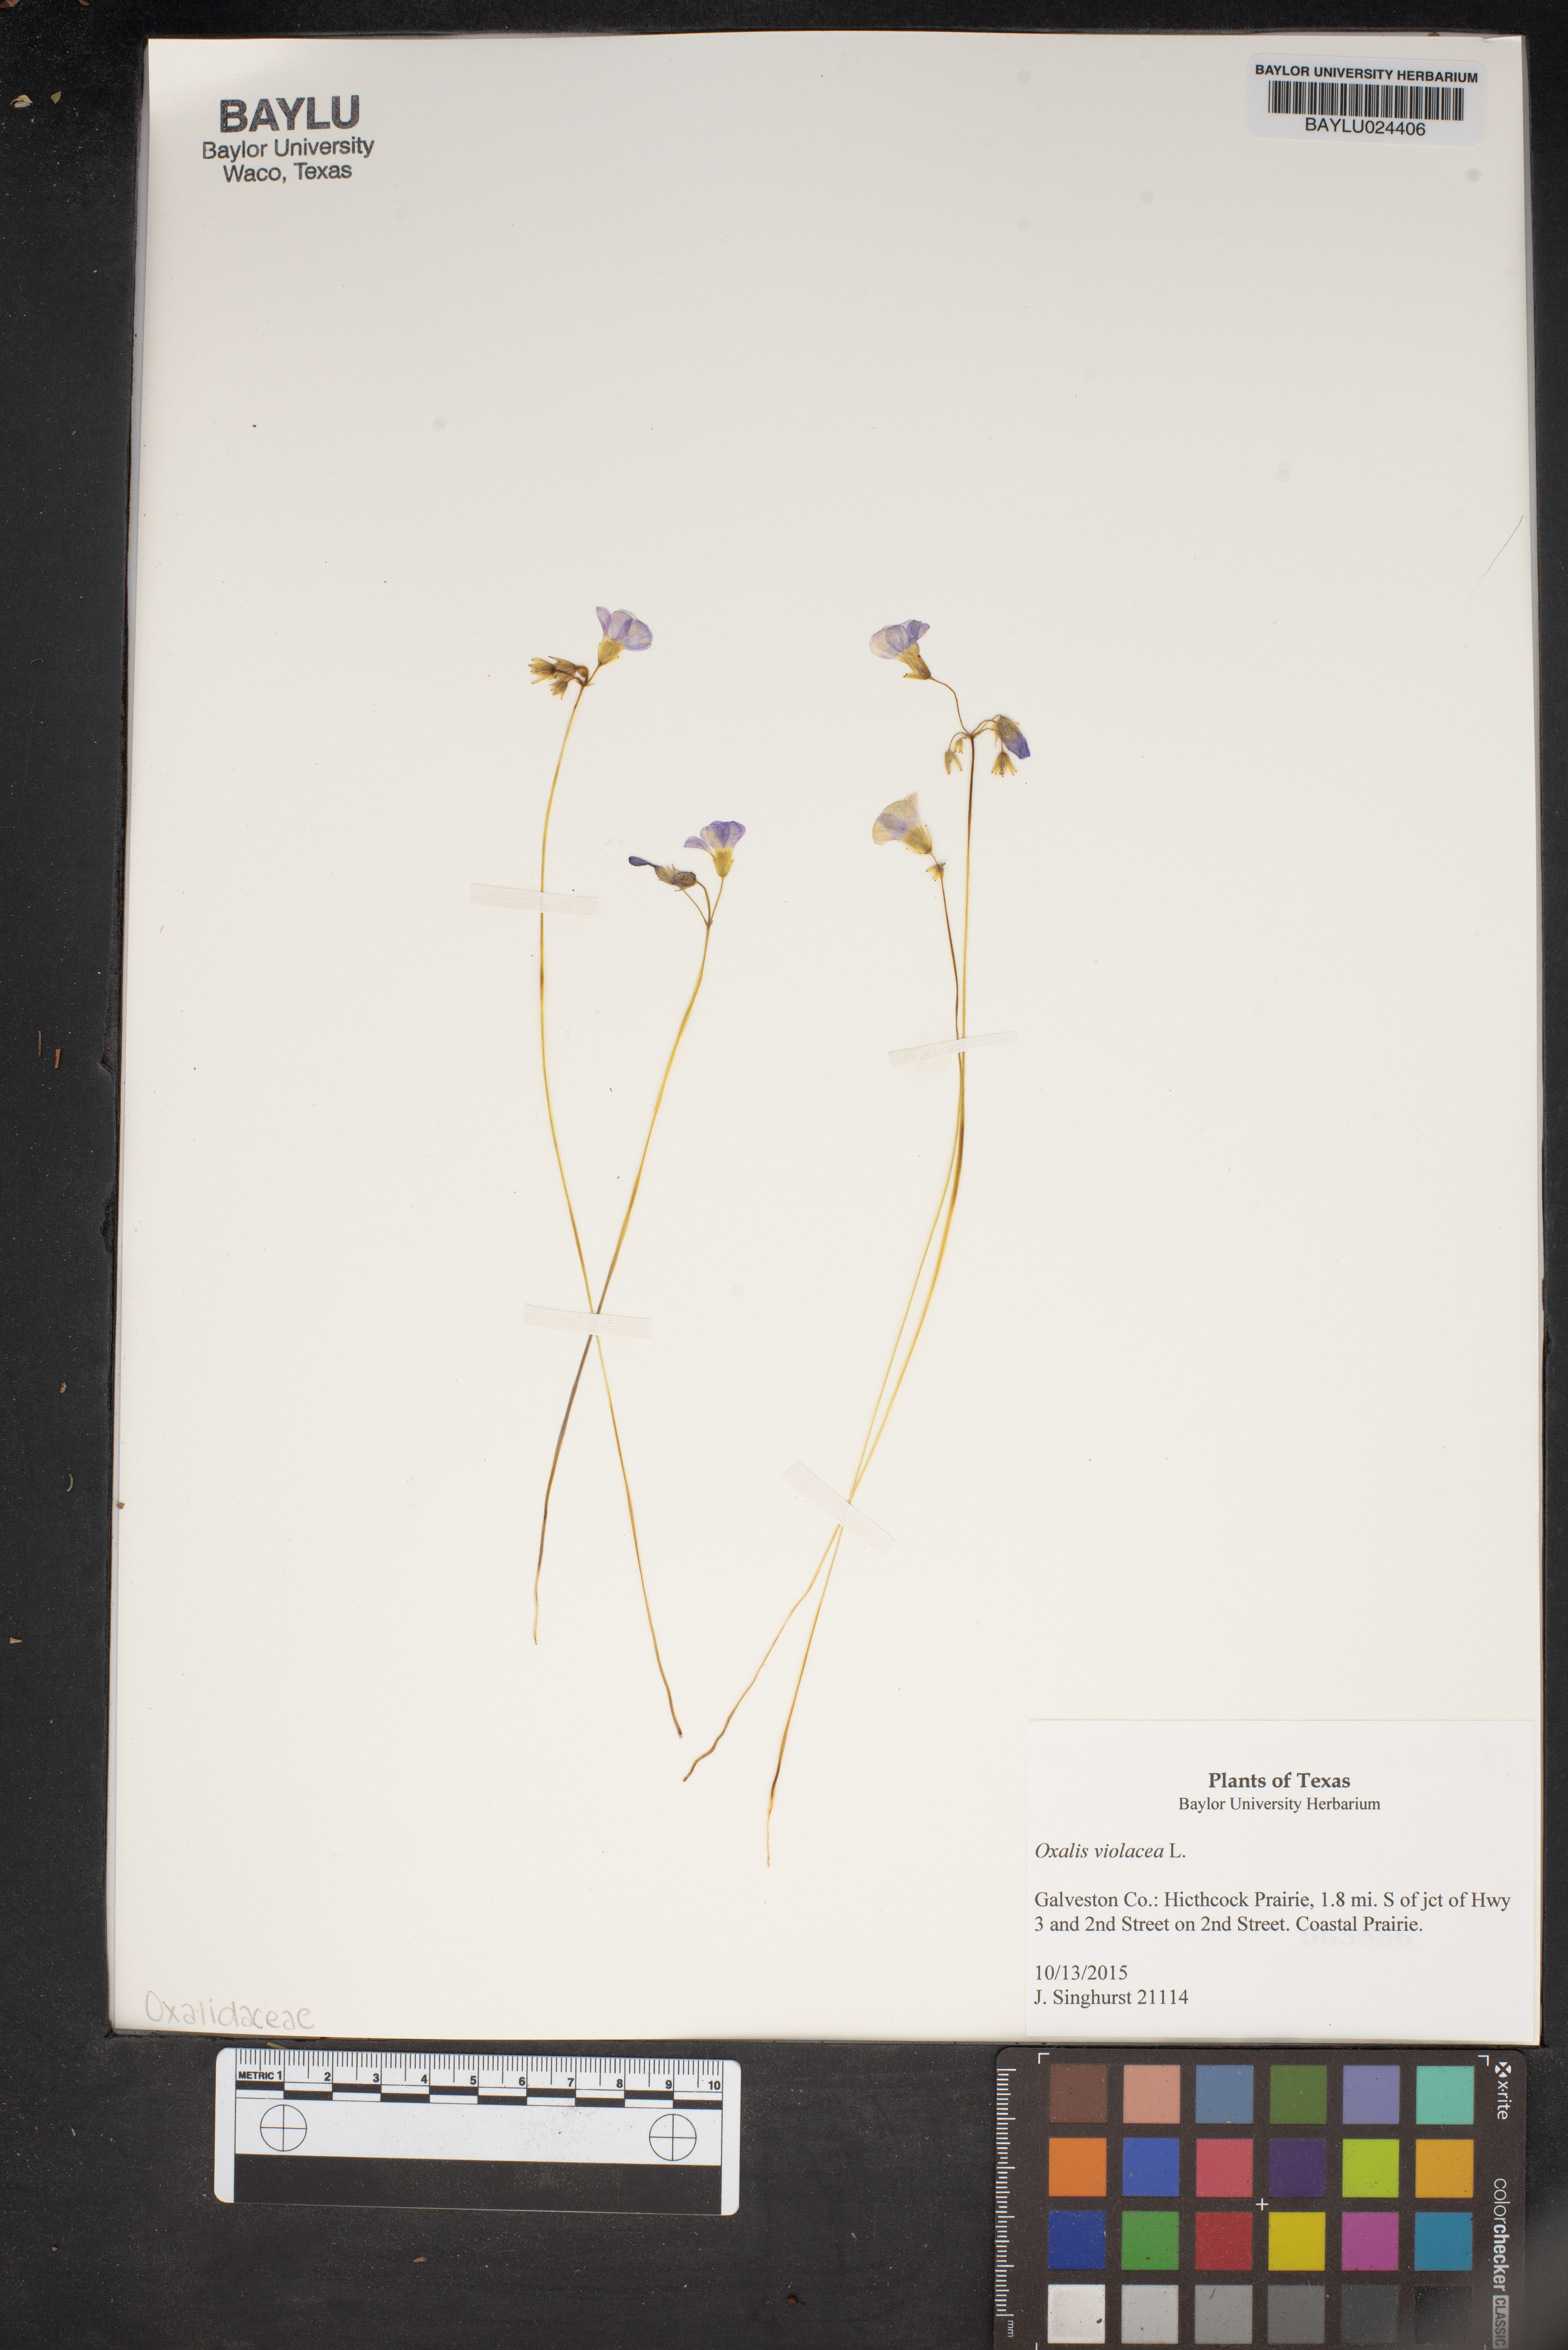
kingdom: Plantae
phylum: Tracheophyta
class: Magnoliopsida
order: Oxalidales
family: Oxalidaceae
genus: Oxalis
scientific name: Oxalis violacea
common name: Violet wood-sorrel
